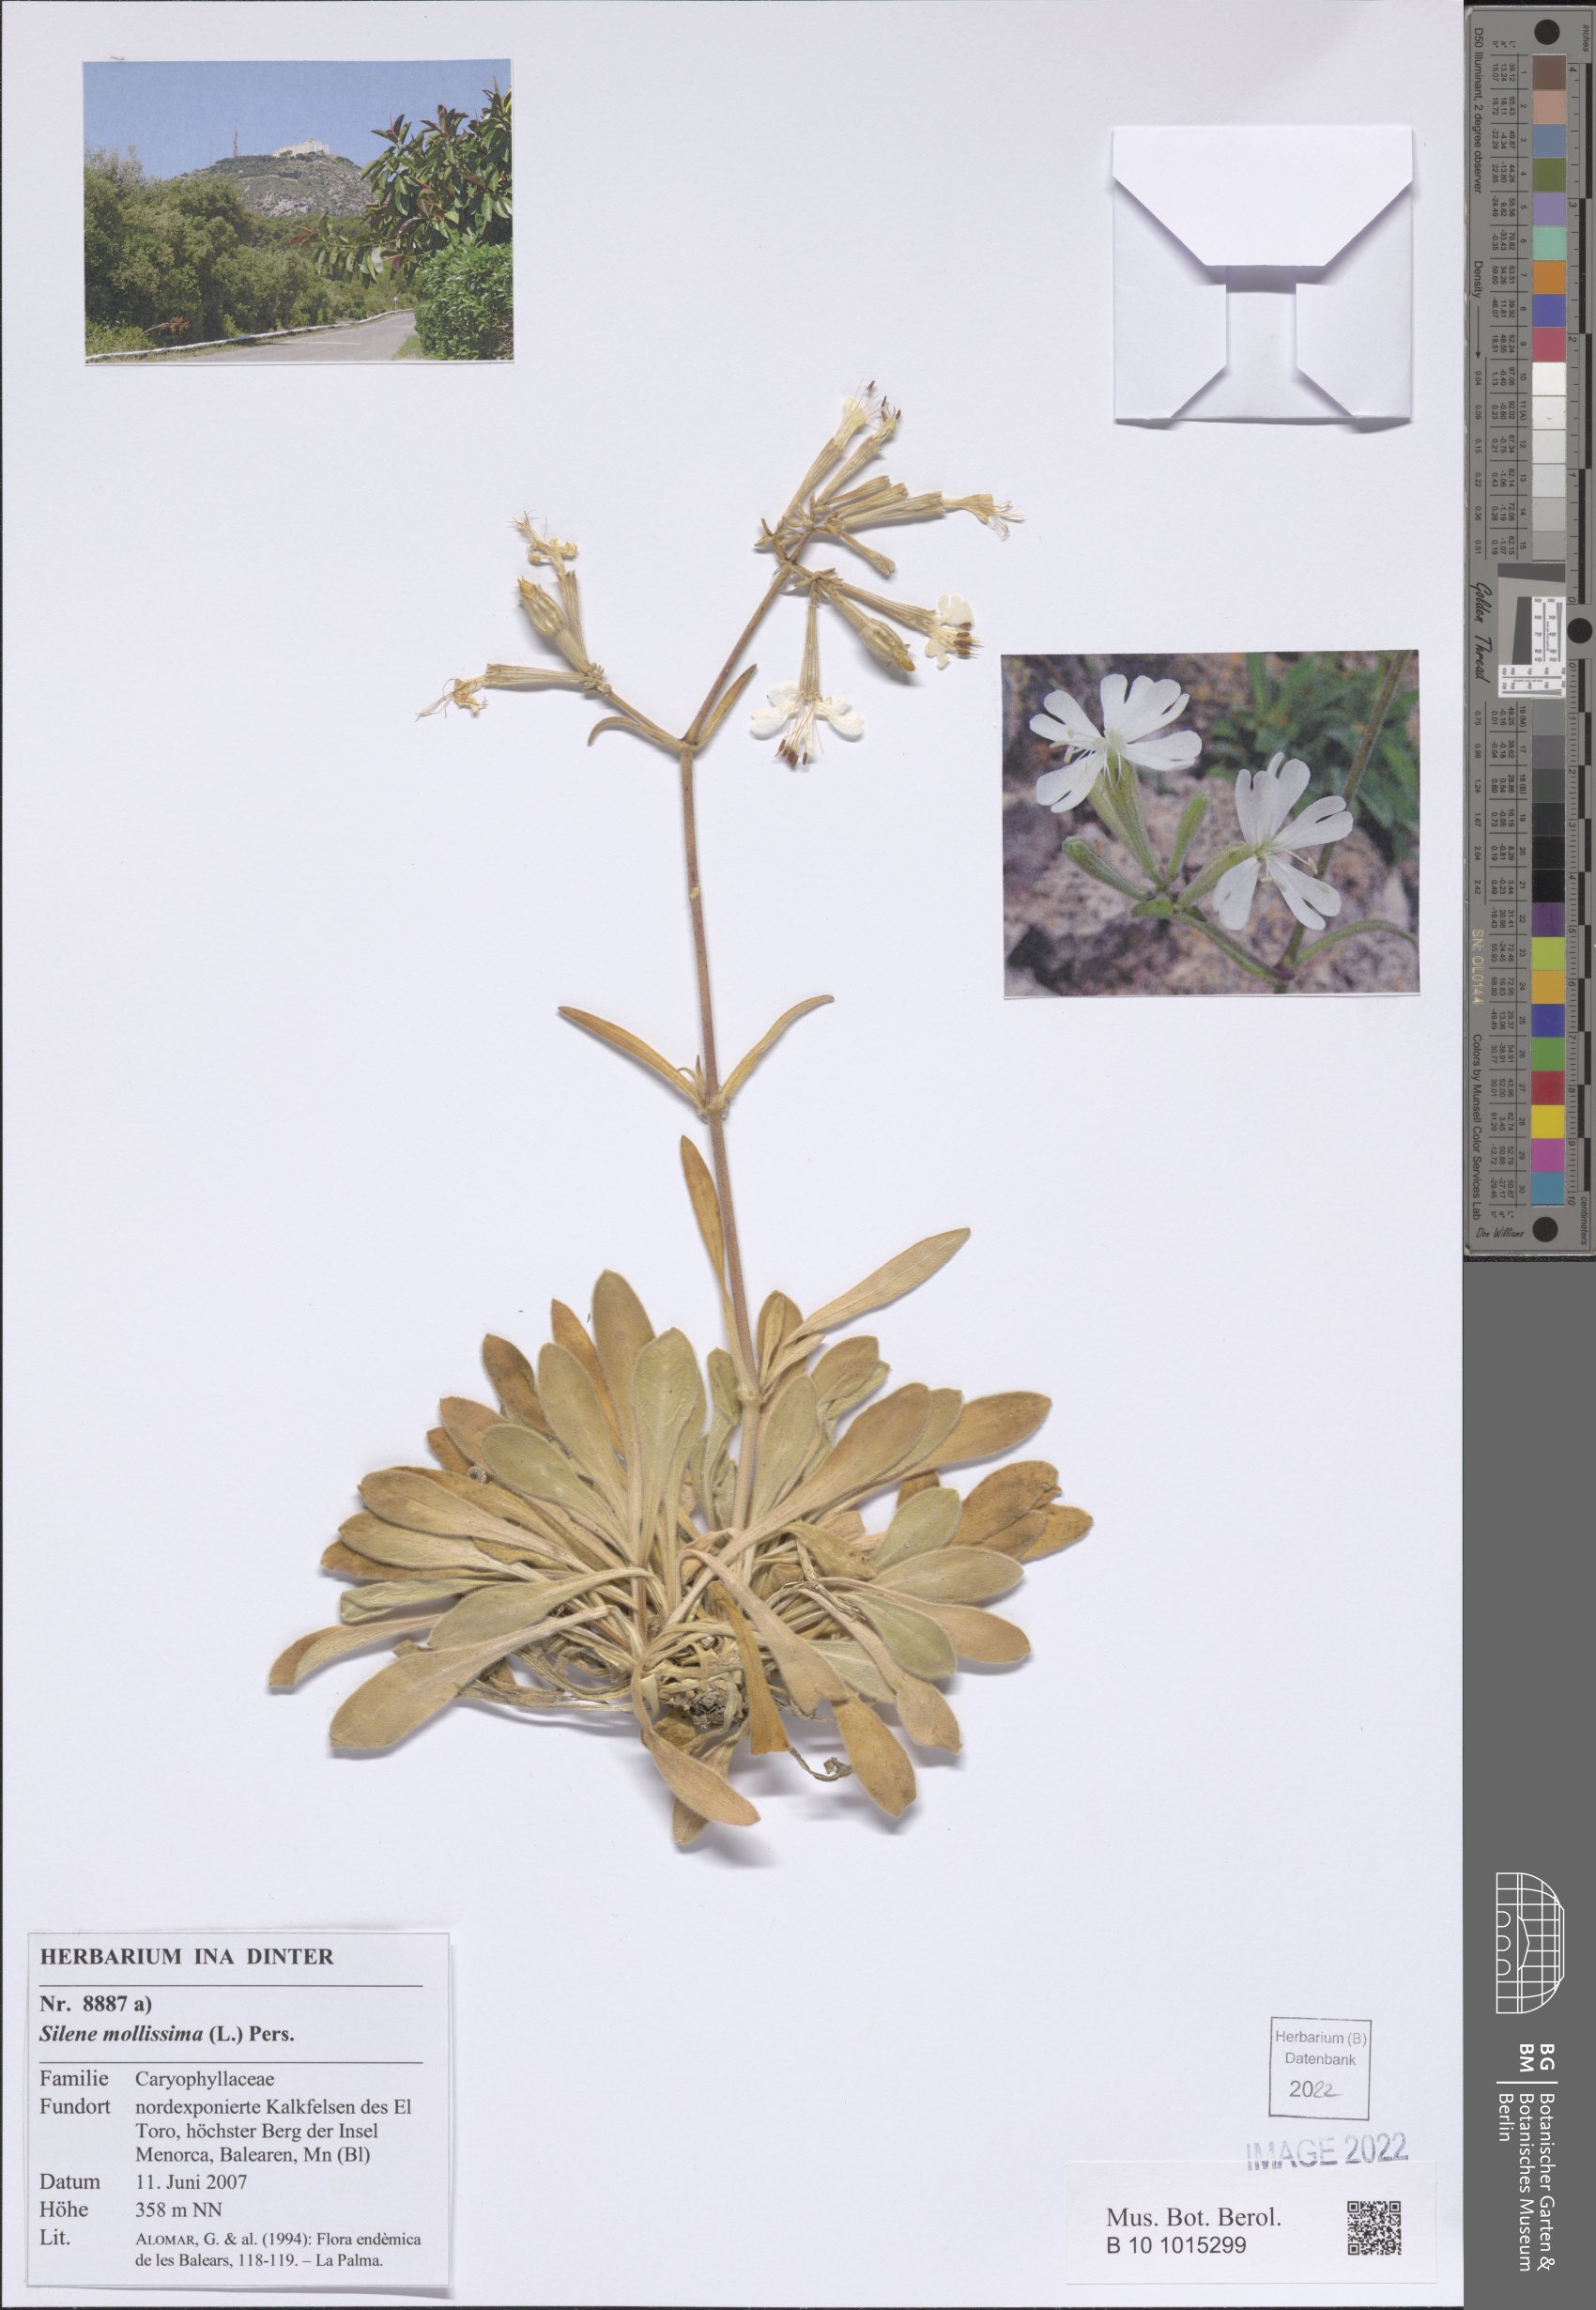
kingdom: Plantae
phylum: Tracheophyta
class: Magnoliopsida
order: Caryophyllales
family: Caryophyllaceae
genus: Silene
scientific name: Silene mollissima
